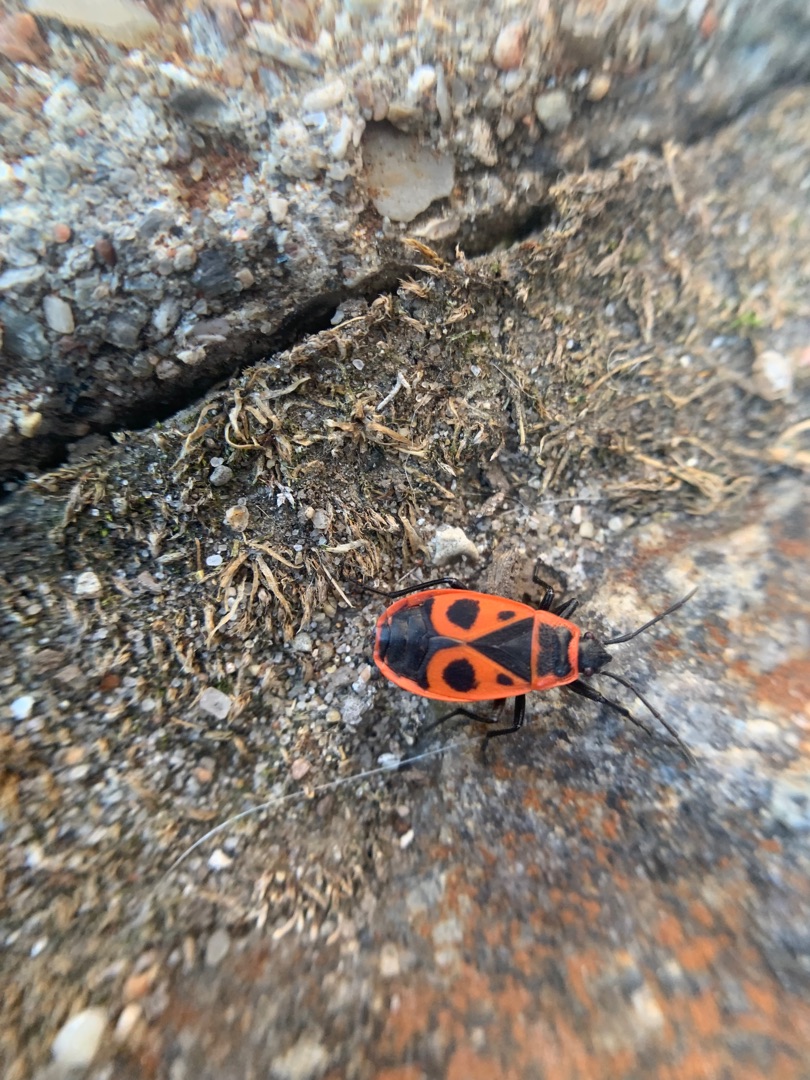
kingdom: Animalia
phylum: Arthropoda
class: Insecta
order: Hemiptera
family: Pyrrhocoridae
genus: Pyrrhocoris
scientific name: Pyrrhocoris apterus
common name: Ildtæge
